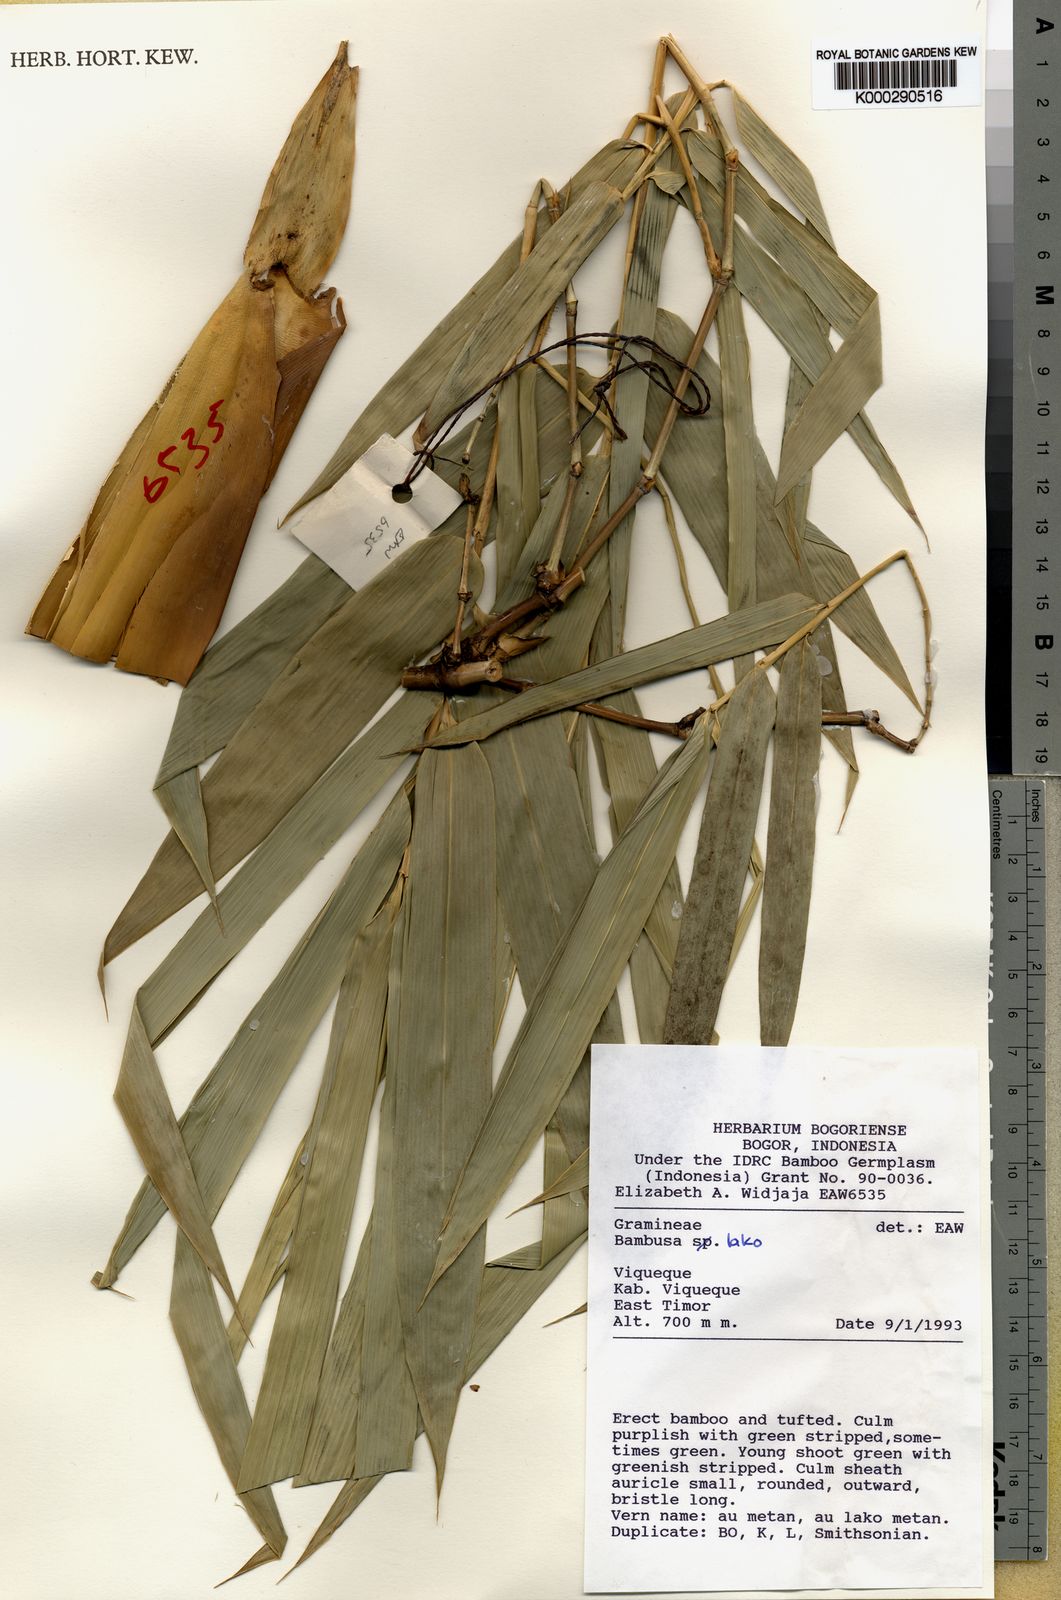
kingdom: Plantae
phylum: Tracheophyta
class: Liliopsida
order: Poales
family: Poaceae
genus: Bambusa
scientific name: Bambusa lako
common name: Timor black bamboo
